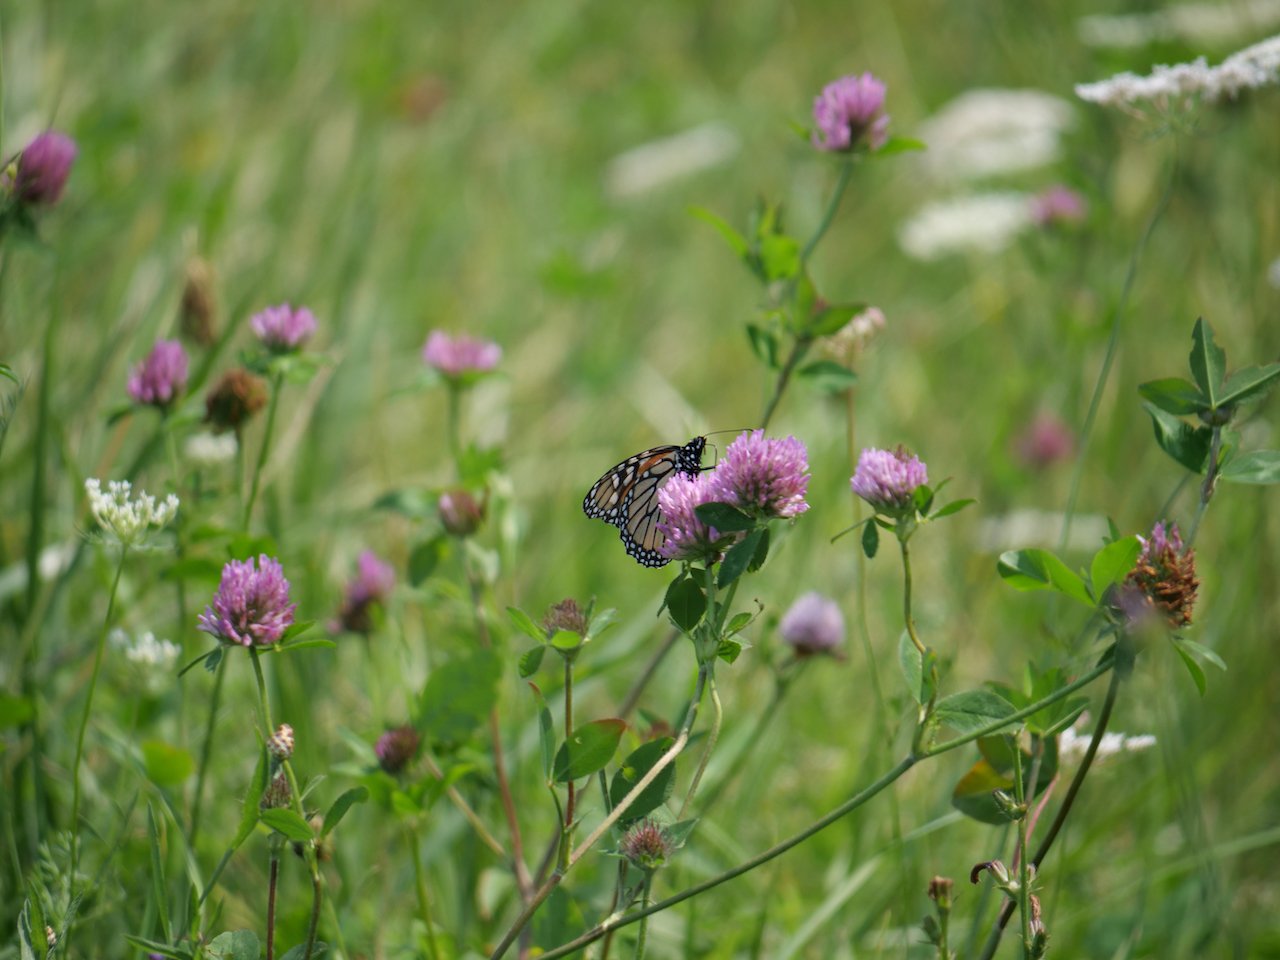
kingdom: Animalia
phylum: Arthropoda
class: Insecta
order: Lepidoptera
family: Nymphalidae
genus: Danaus
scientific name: Danaus plexippus
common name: Monarch
